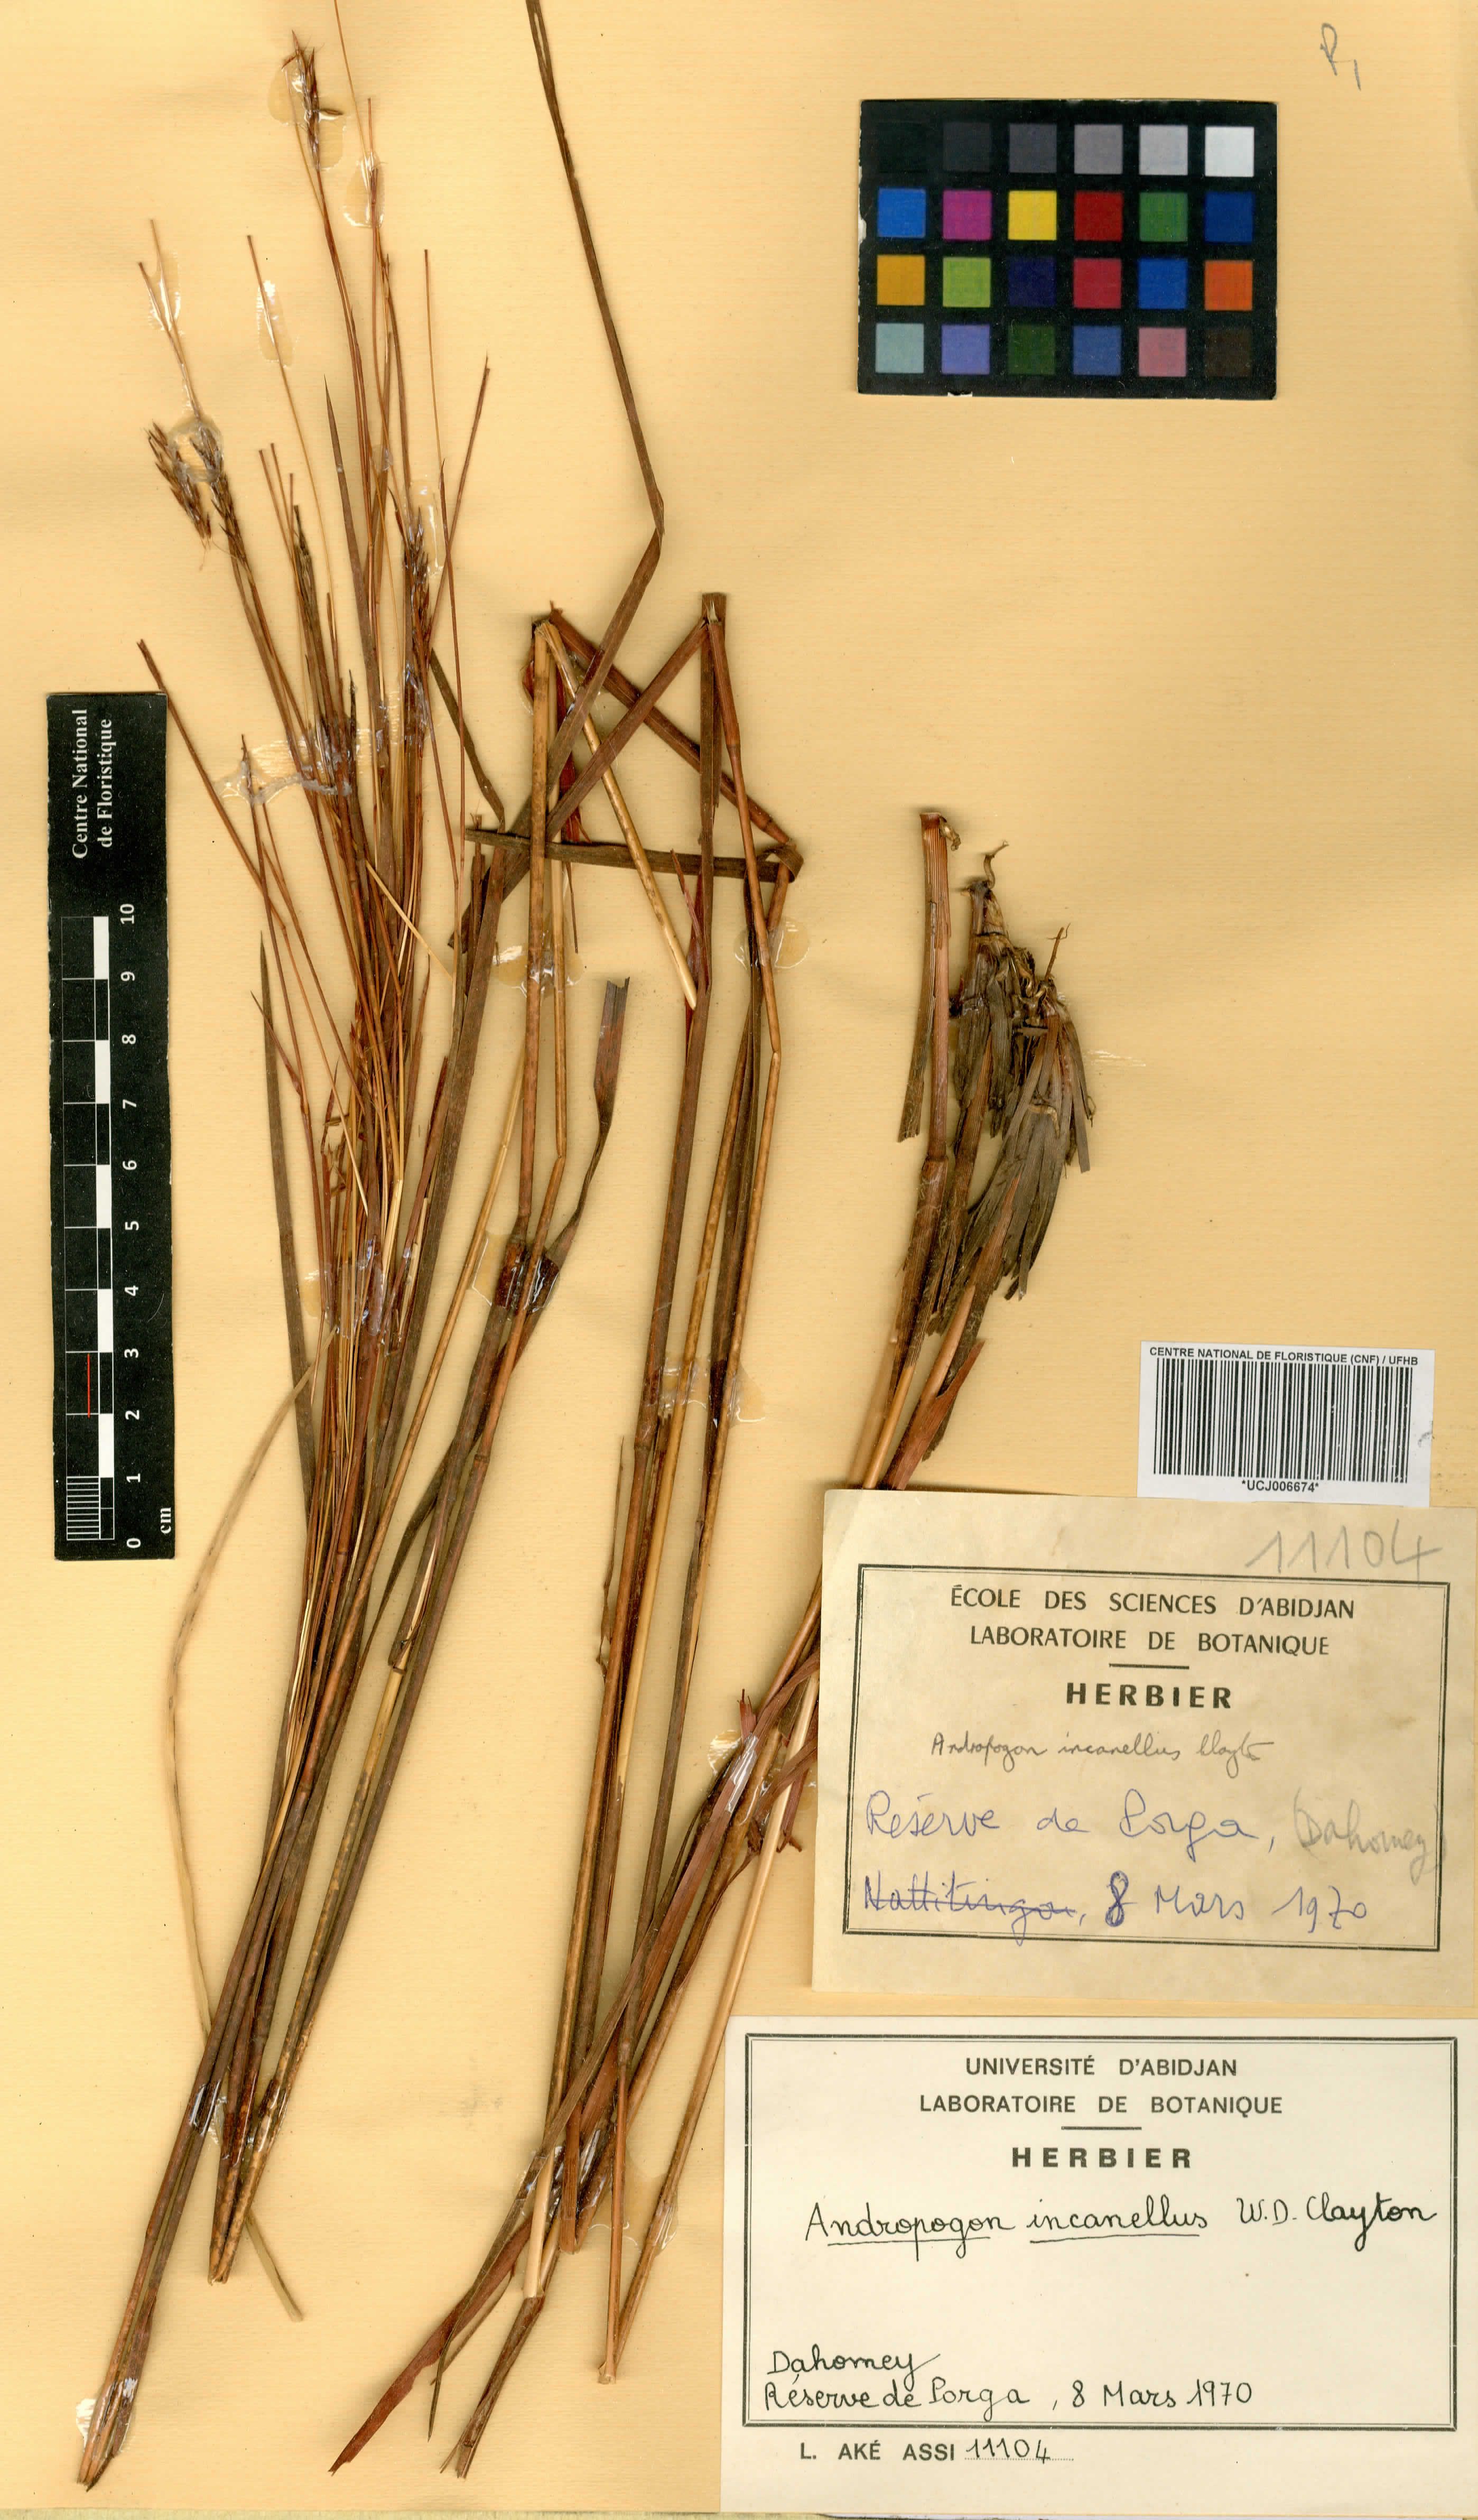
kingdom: Plantae
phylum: Tracheophyta
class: Liliopsida
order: Poales
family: Poaceae
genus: Andropogon
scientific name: Andropogon africanus
